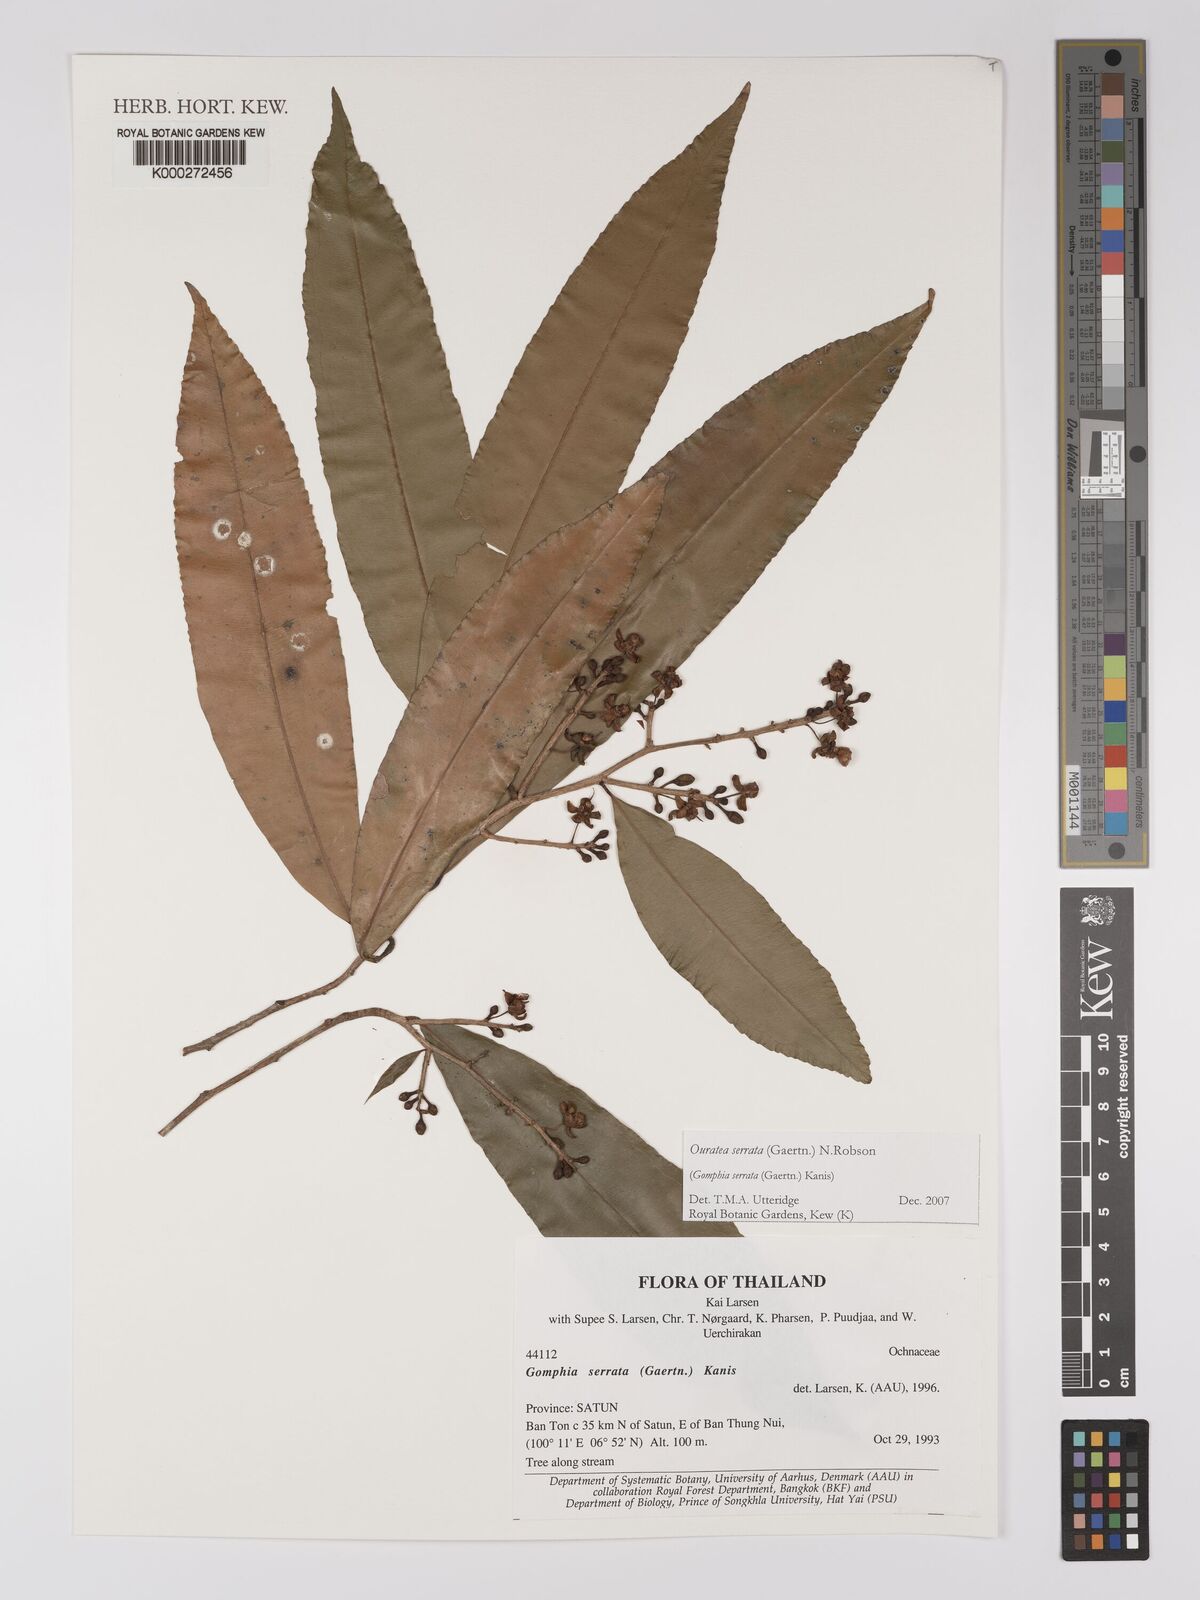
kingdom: Plantae
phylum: Tracheophyta
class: Magnoliopsida
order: Malpighiales
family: Ochnaceae
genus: Gomphia
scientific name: Gomphia serrata
